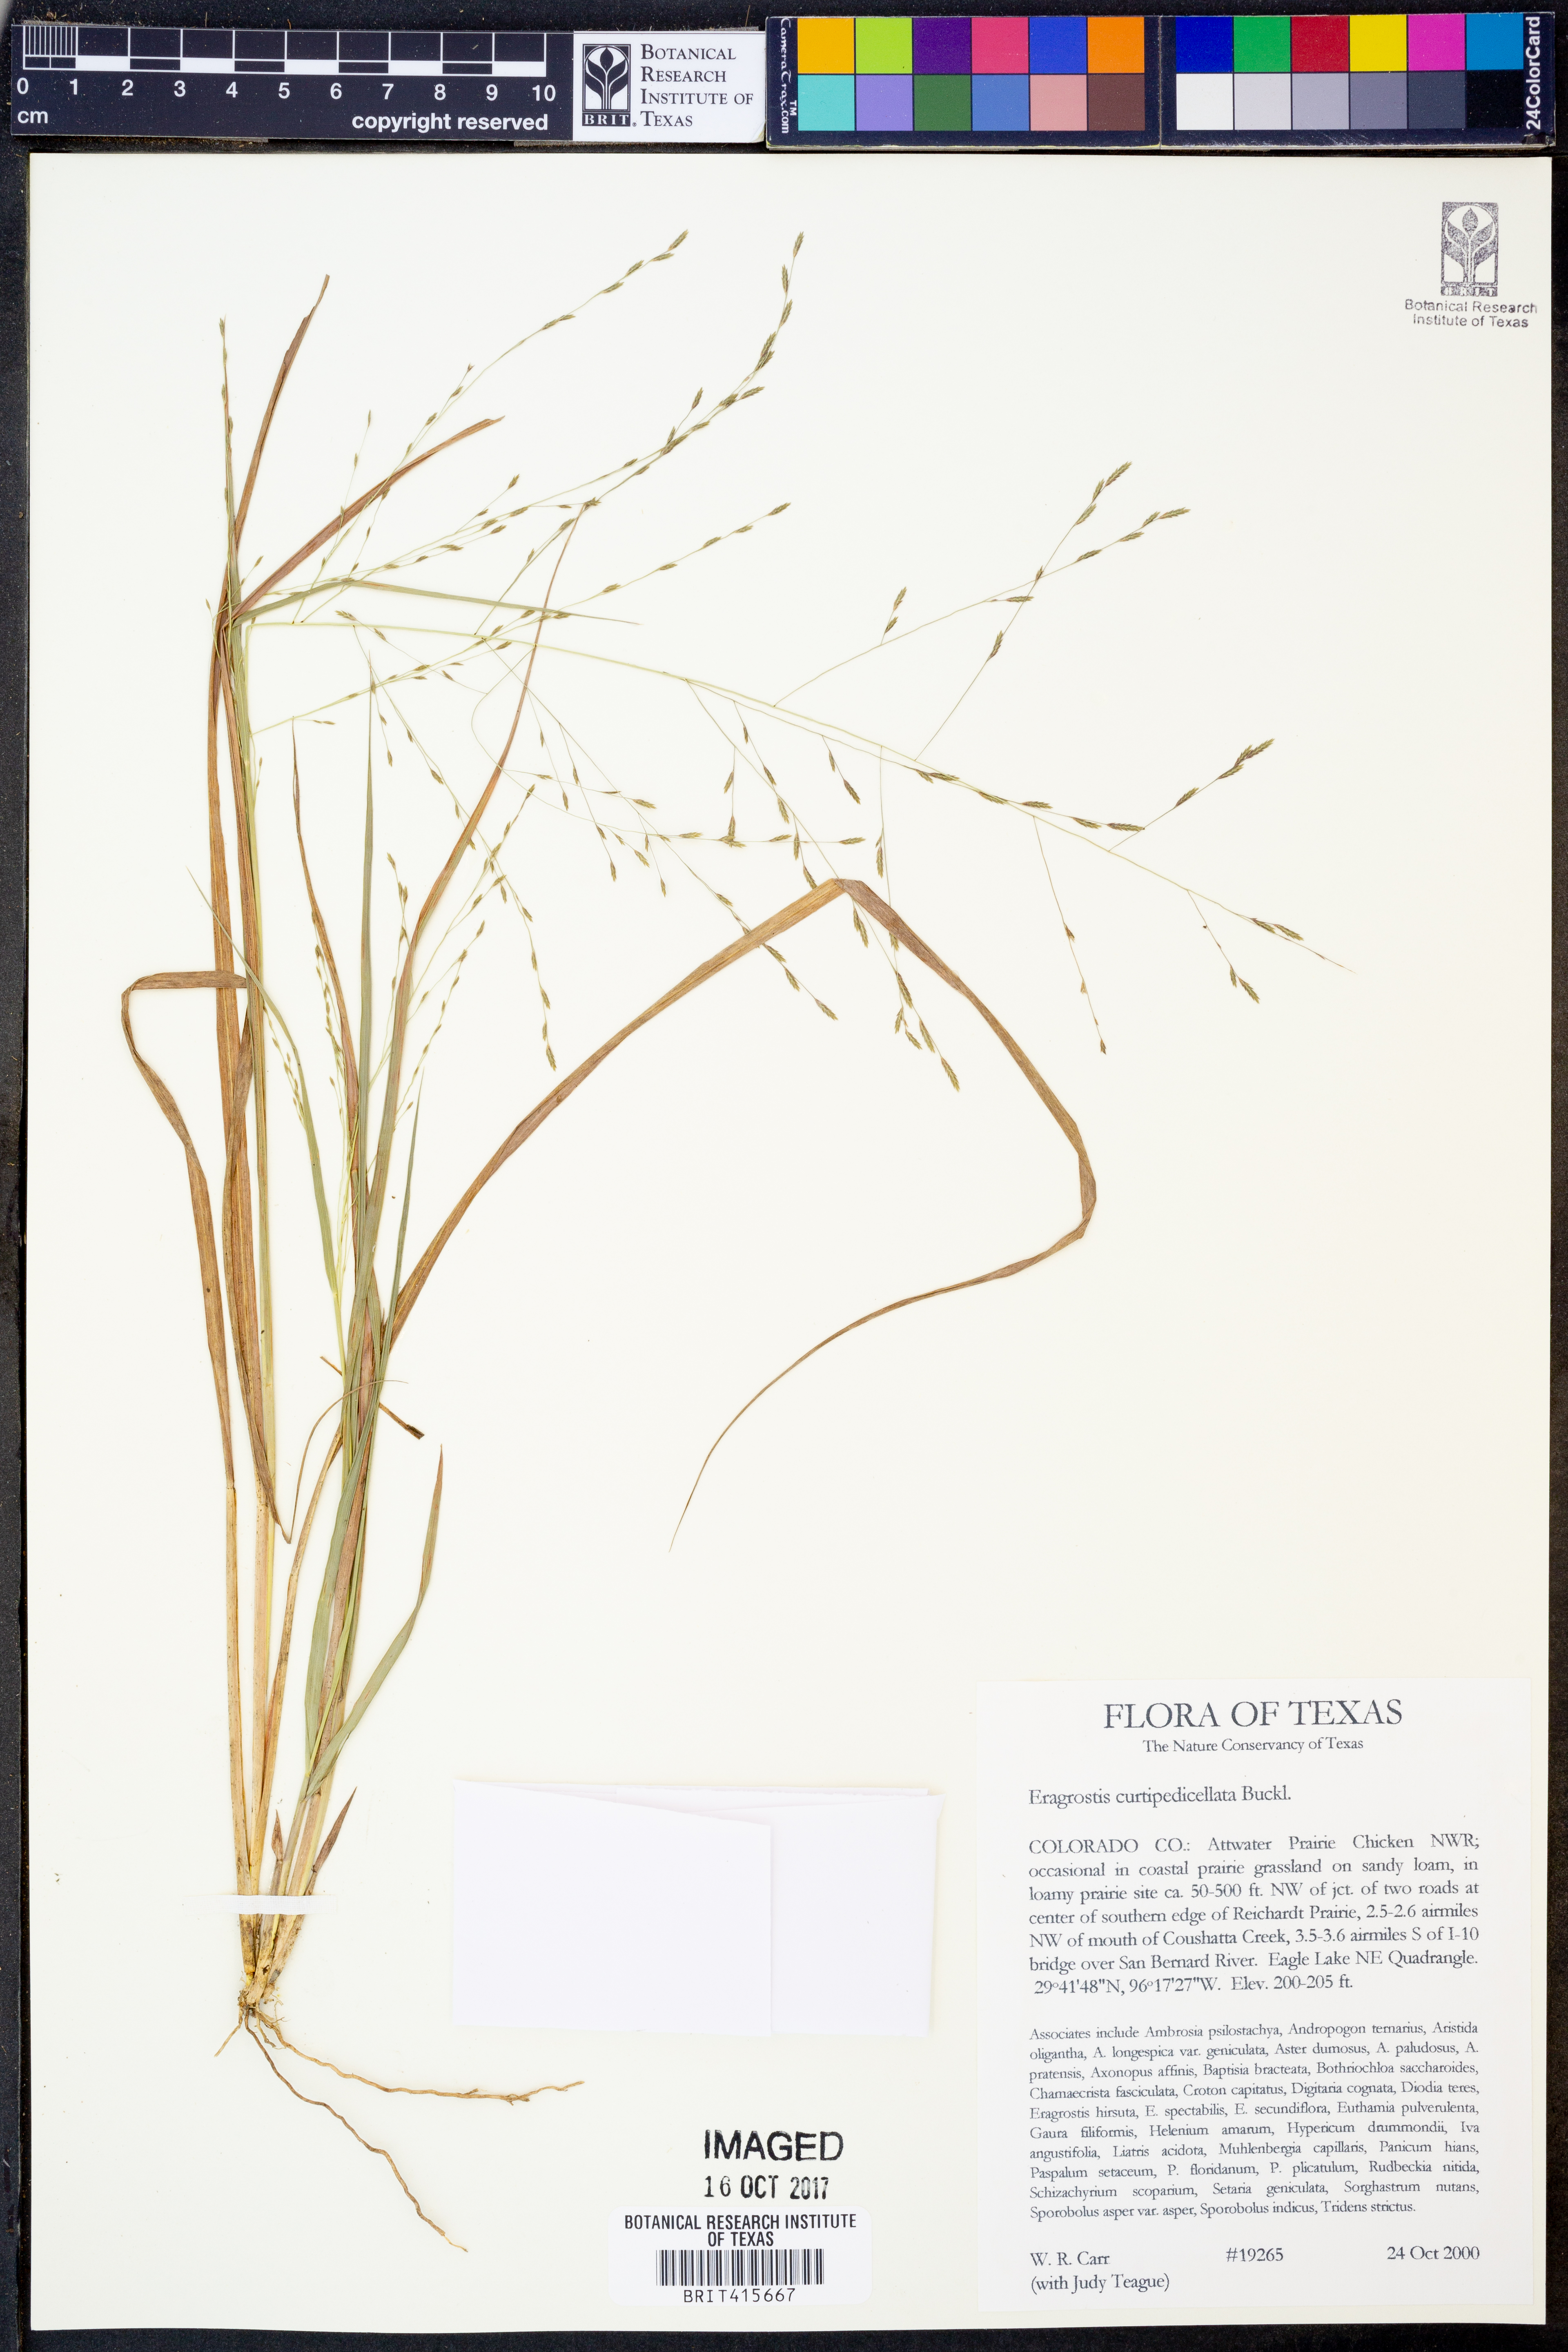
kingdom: Plantae
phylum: Tracheophyta
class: Liliopsida
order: Poales
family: Poaceae
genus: Eragrostis
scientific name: Eragrostis curtipedicellata
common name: Gummy love grass
